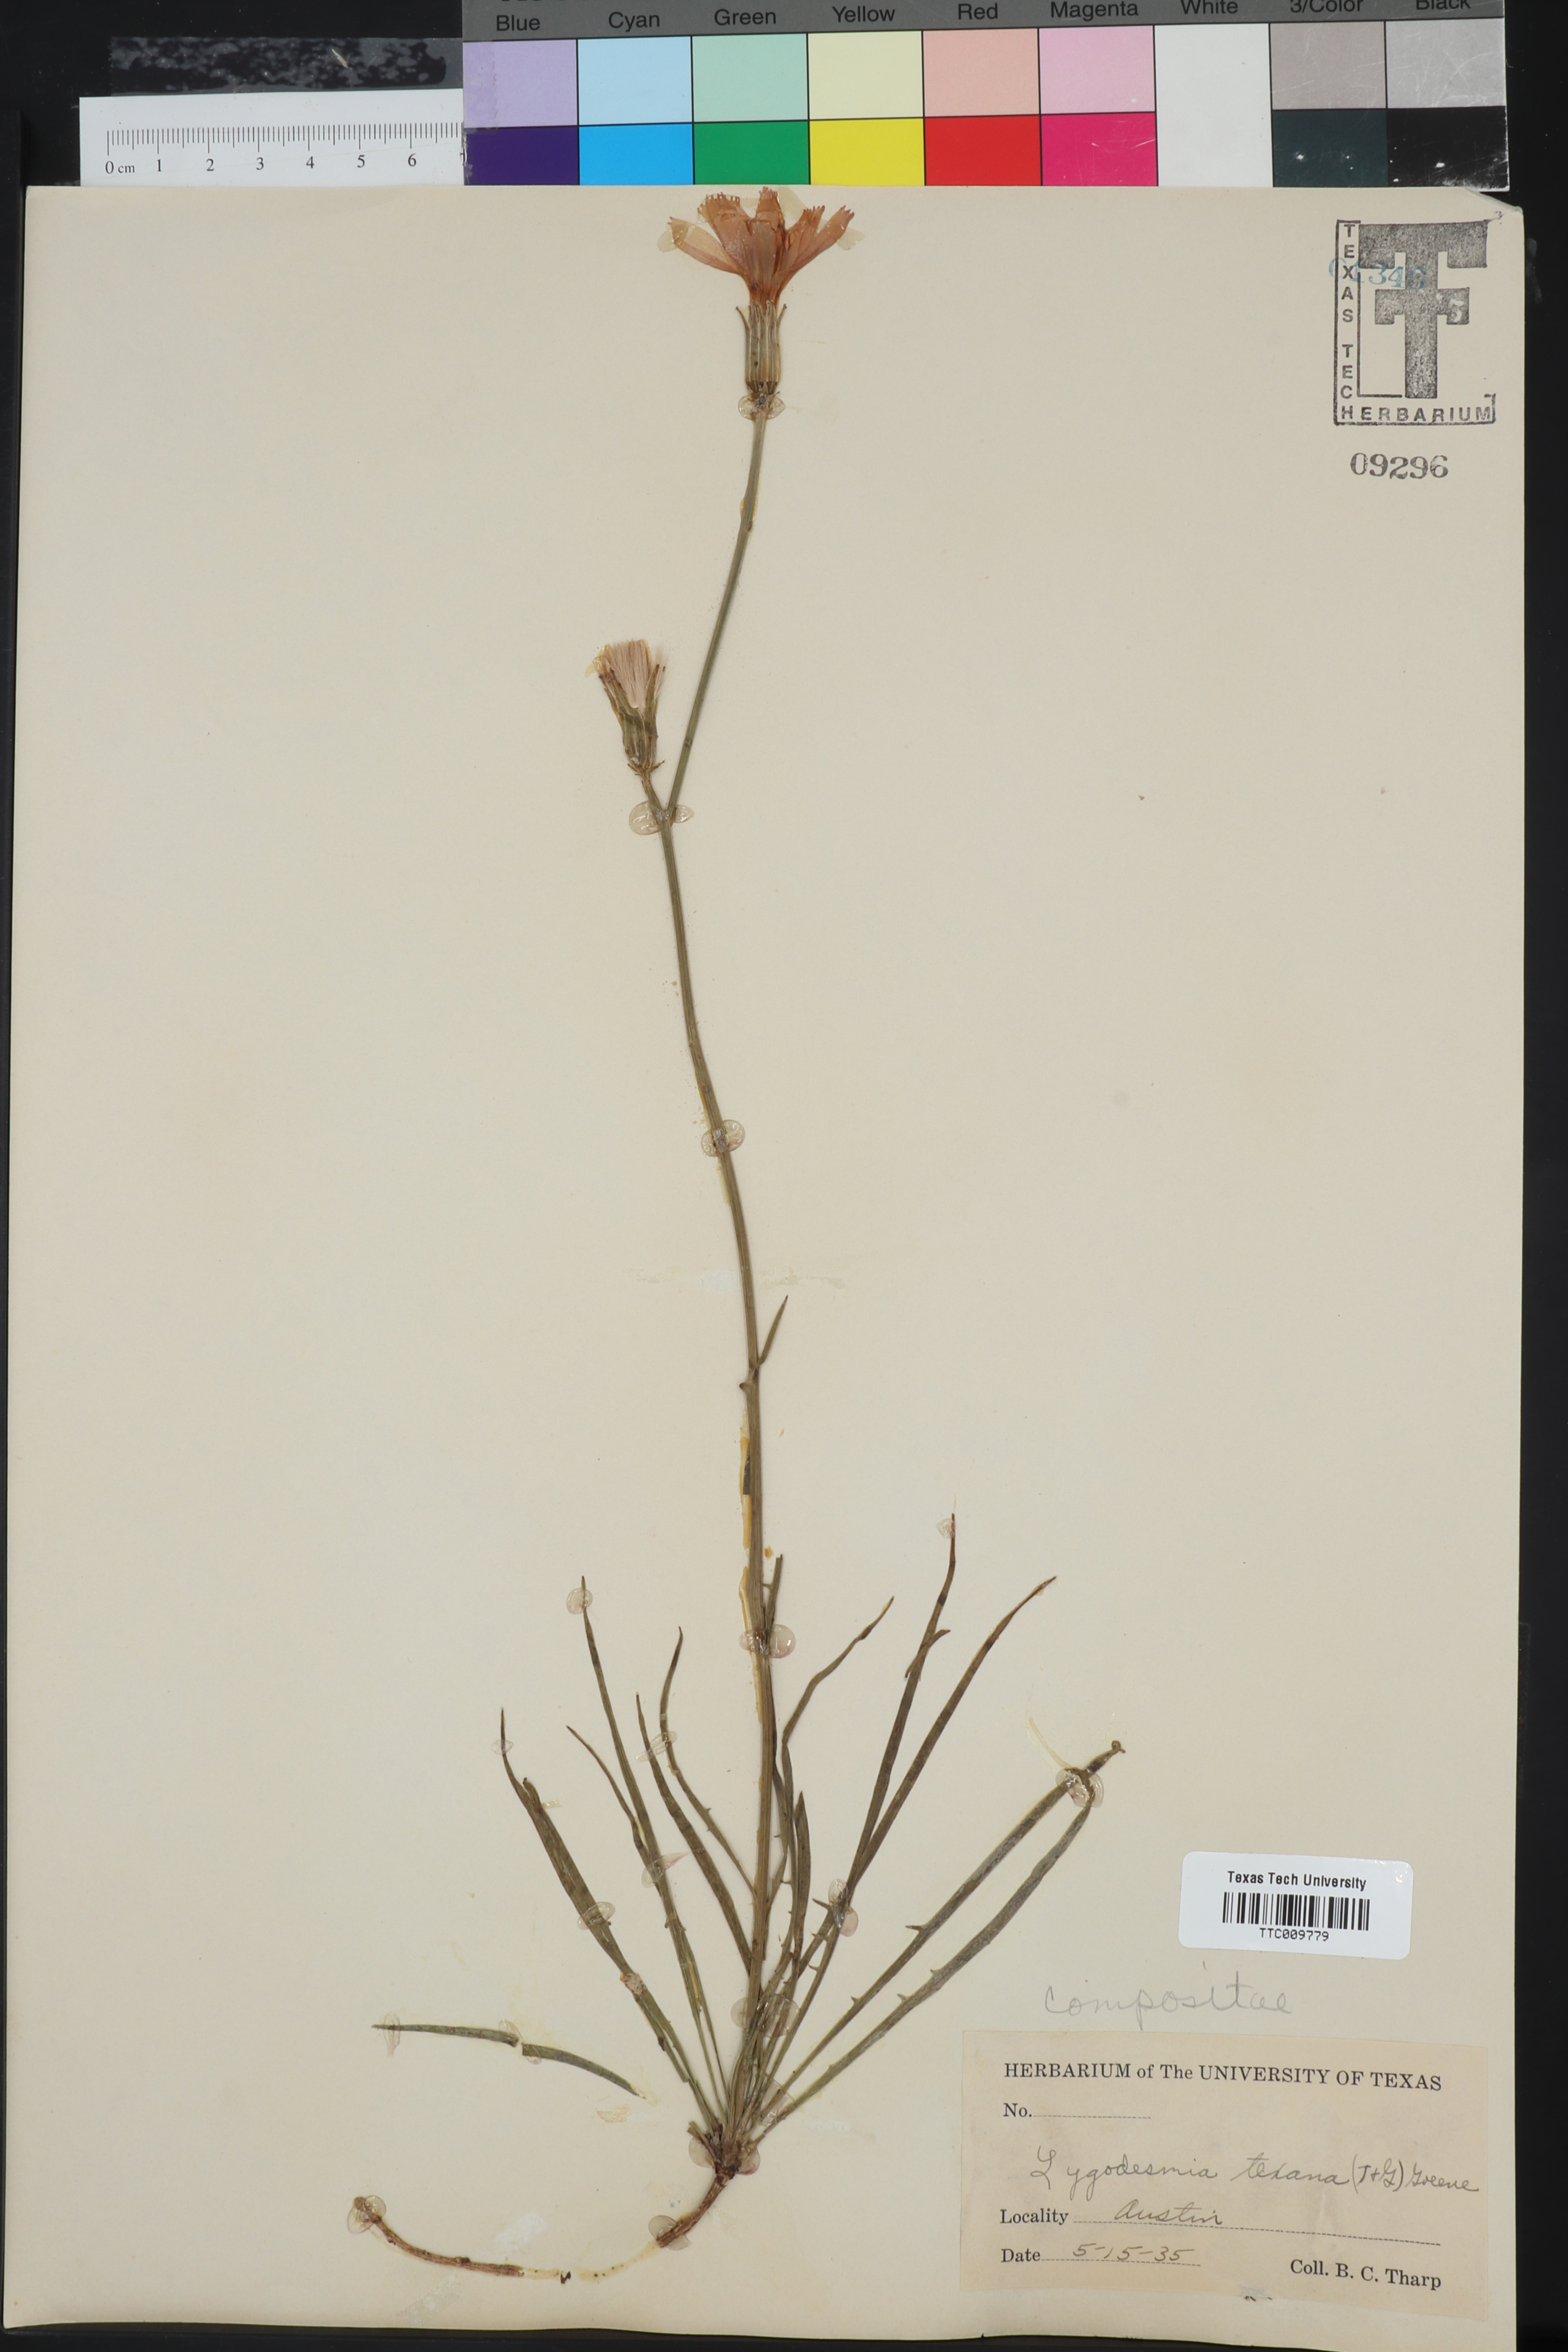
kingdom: Plantae
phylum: Tracheophyta
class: Magnoliopsida
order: Asterales
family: Asteraceae
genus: Lygodesmia
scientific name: Lygodesmia texana
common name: Texas skeleton-plant
